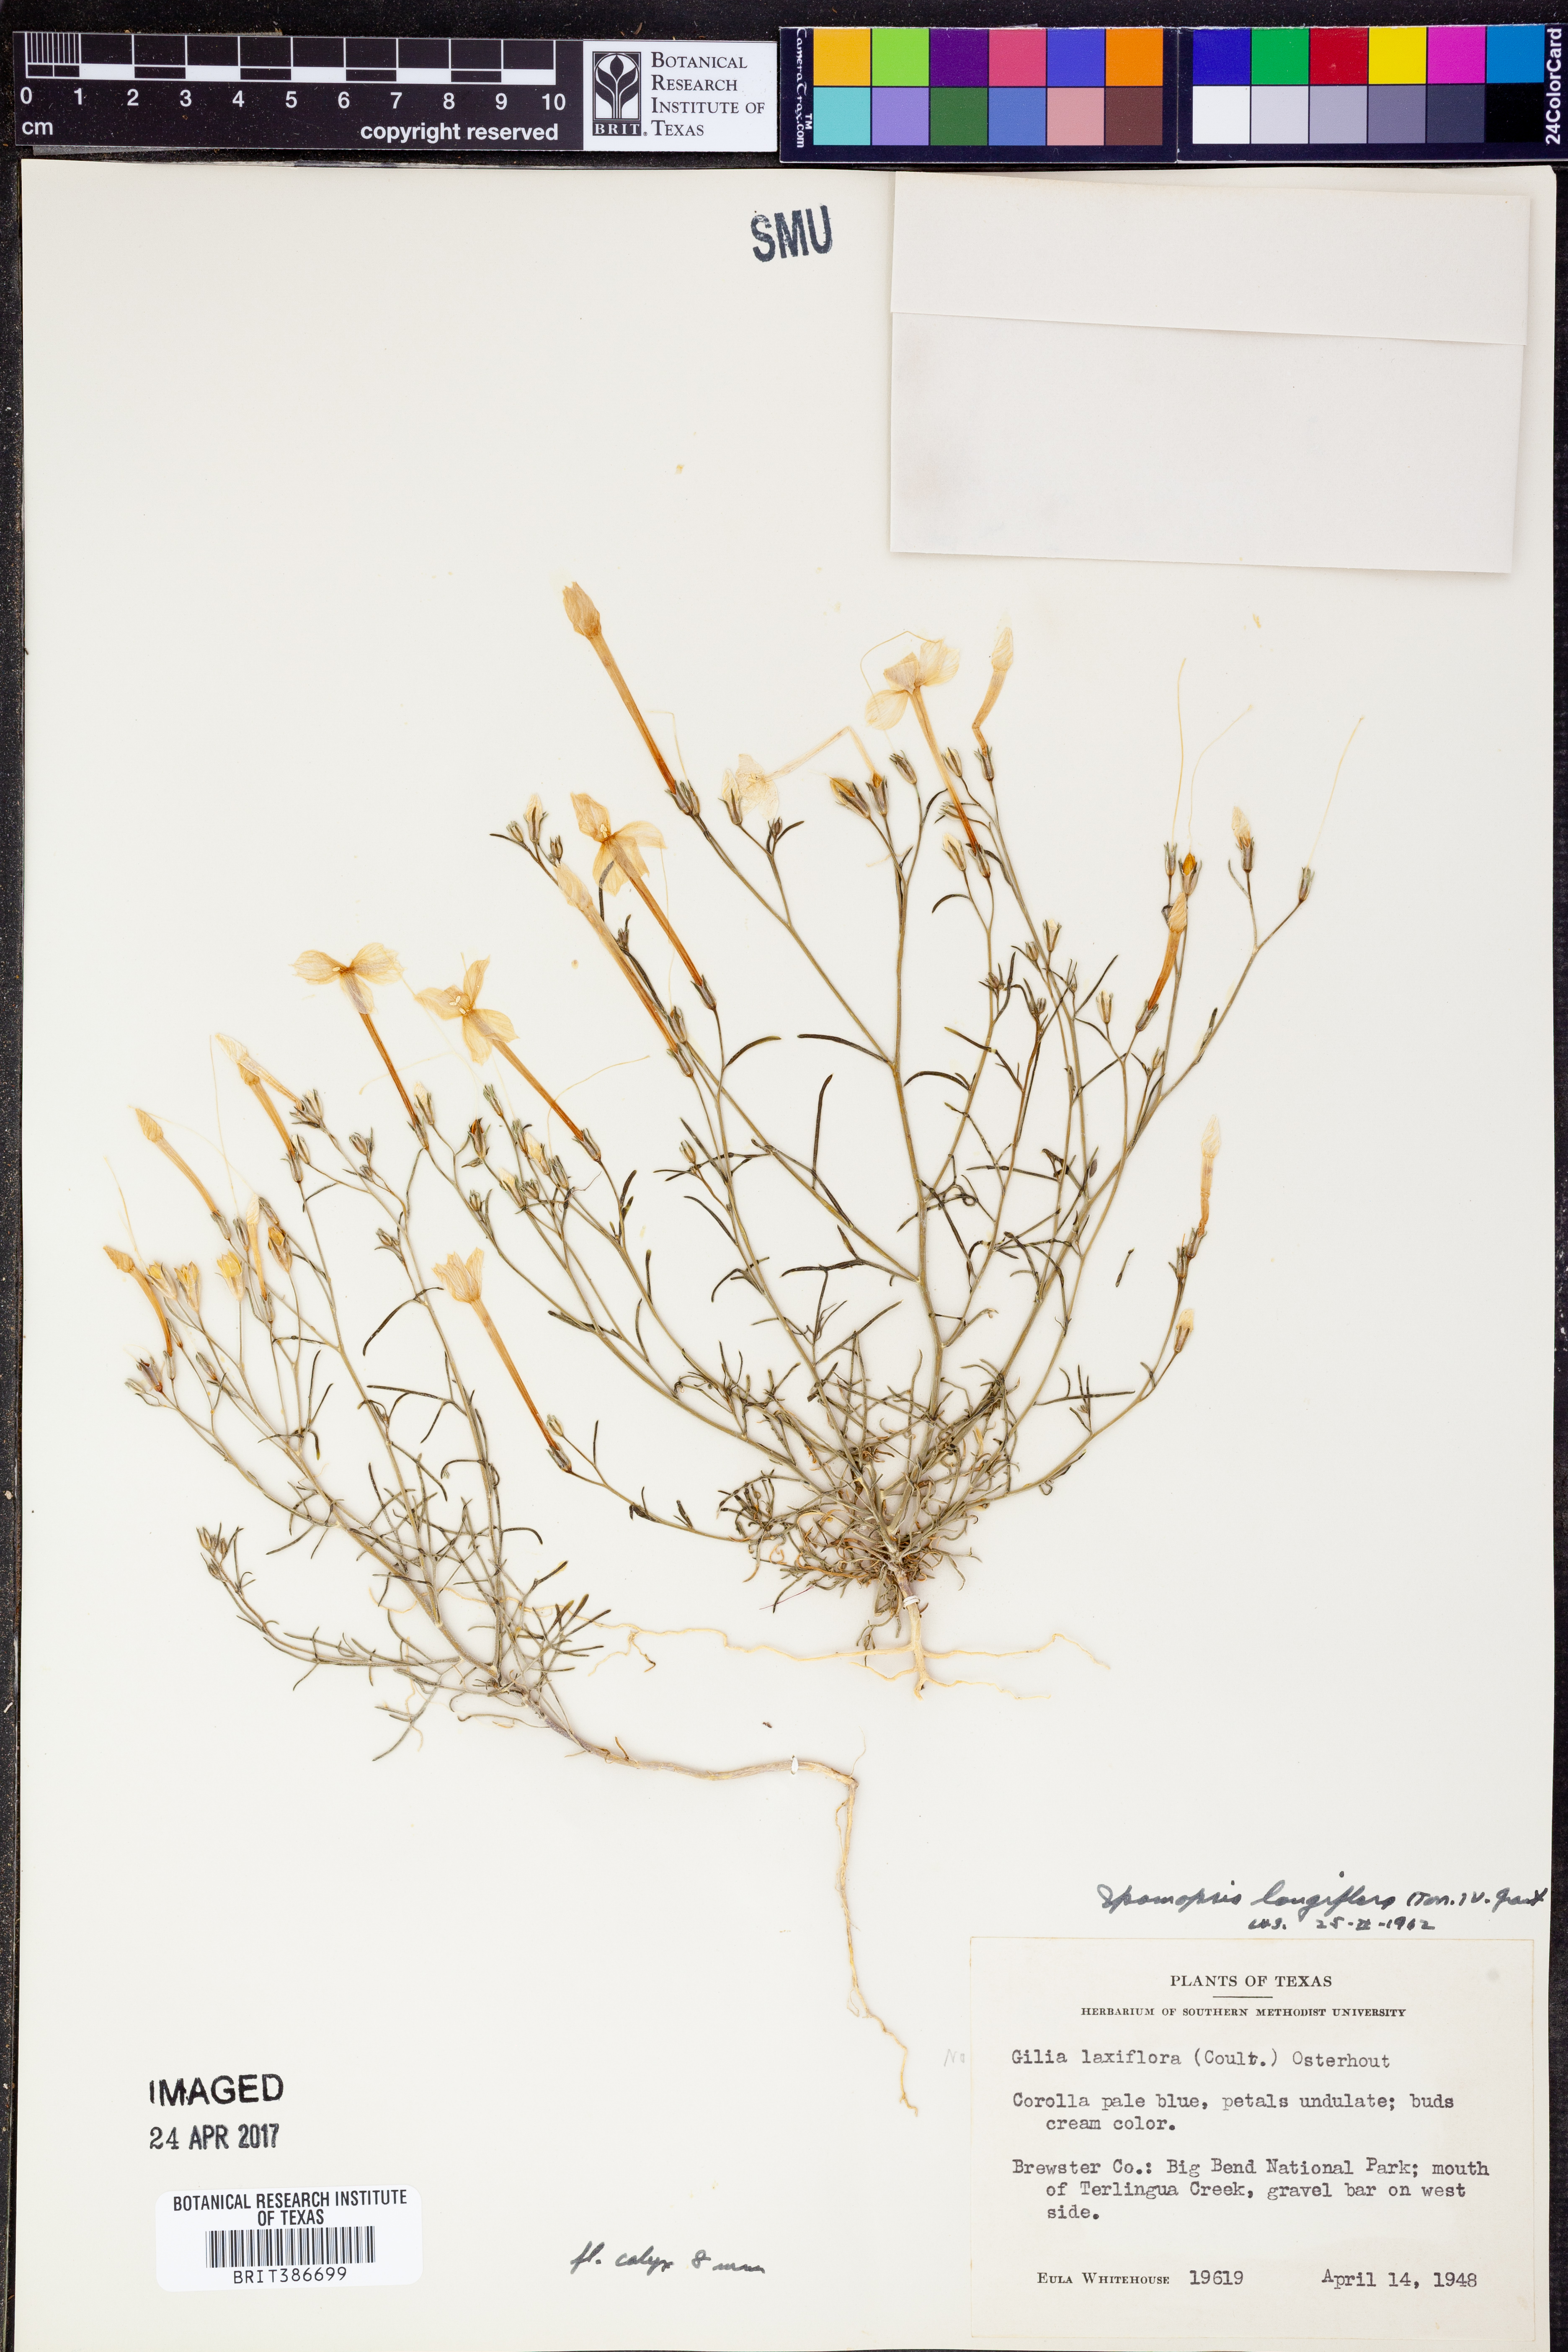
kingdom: Plantae
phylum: Tracheophyta
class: Magnoliopsida
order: Ericales
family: Polemoniaceae
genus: Ipomopsis
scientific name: Ipomopsis longiflora
